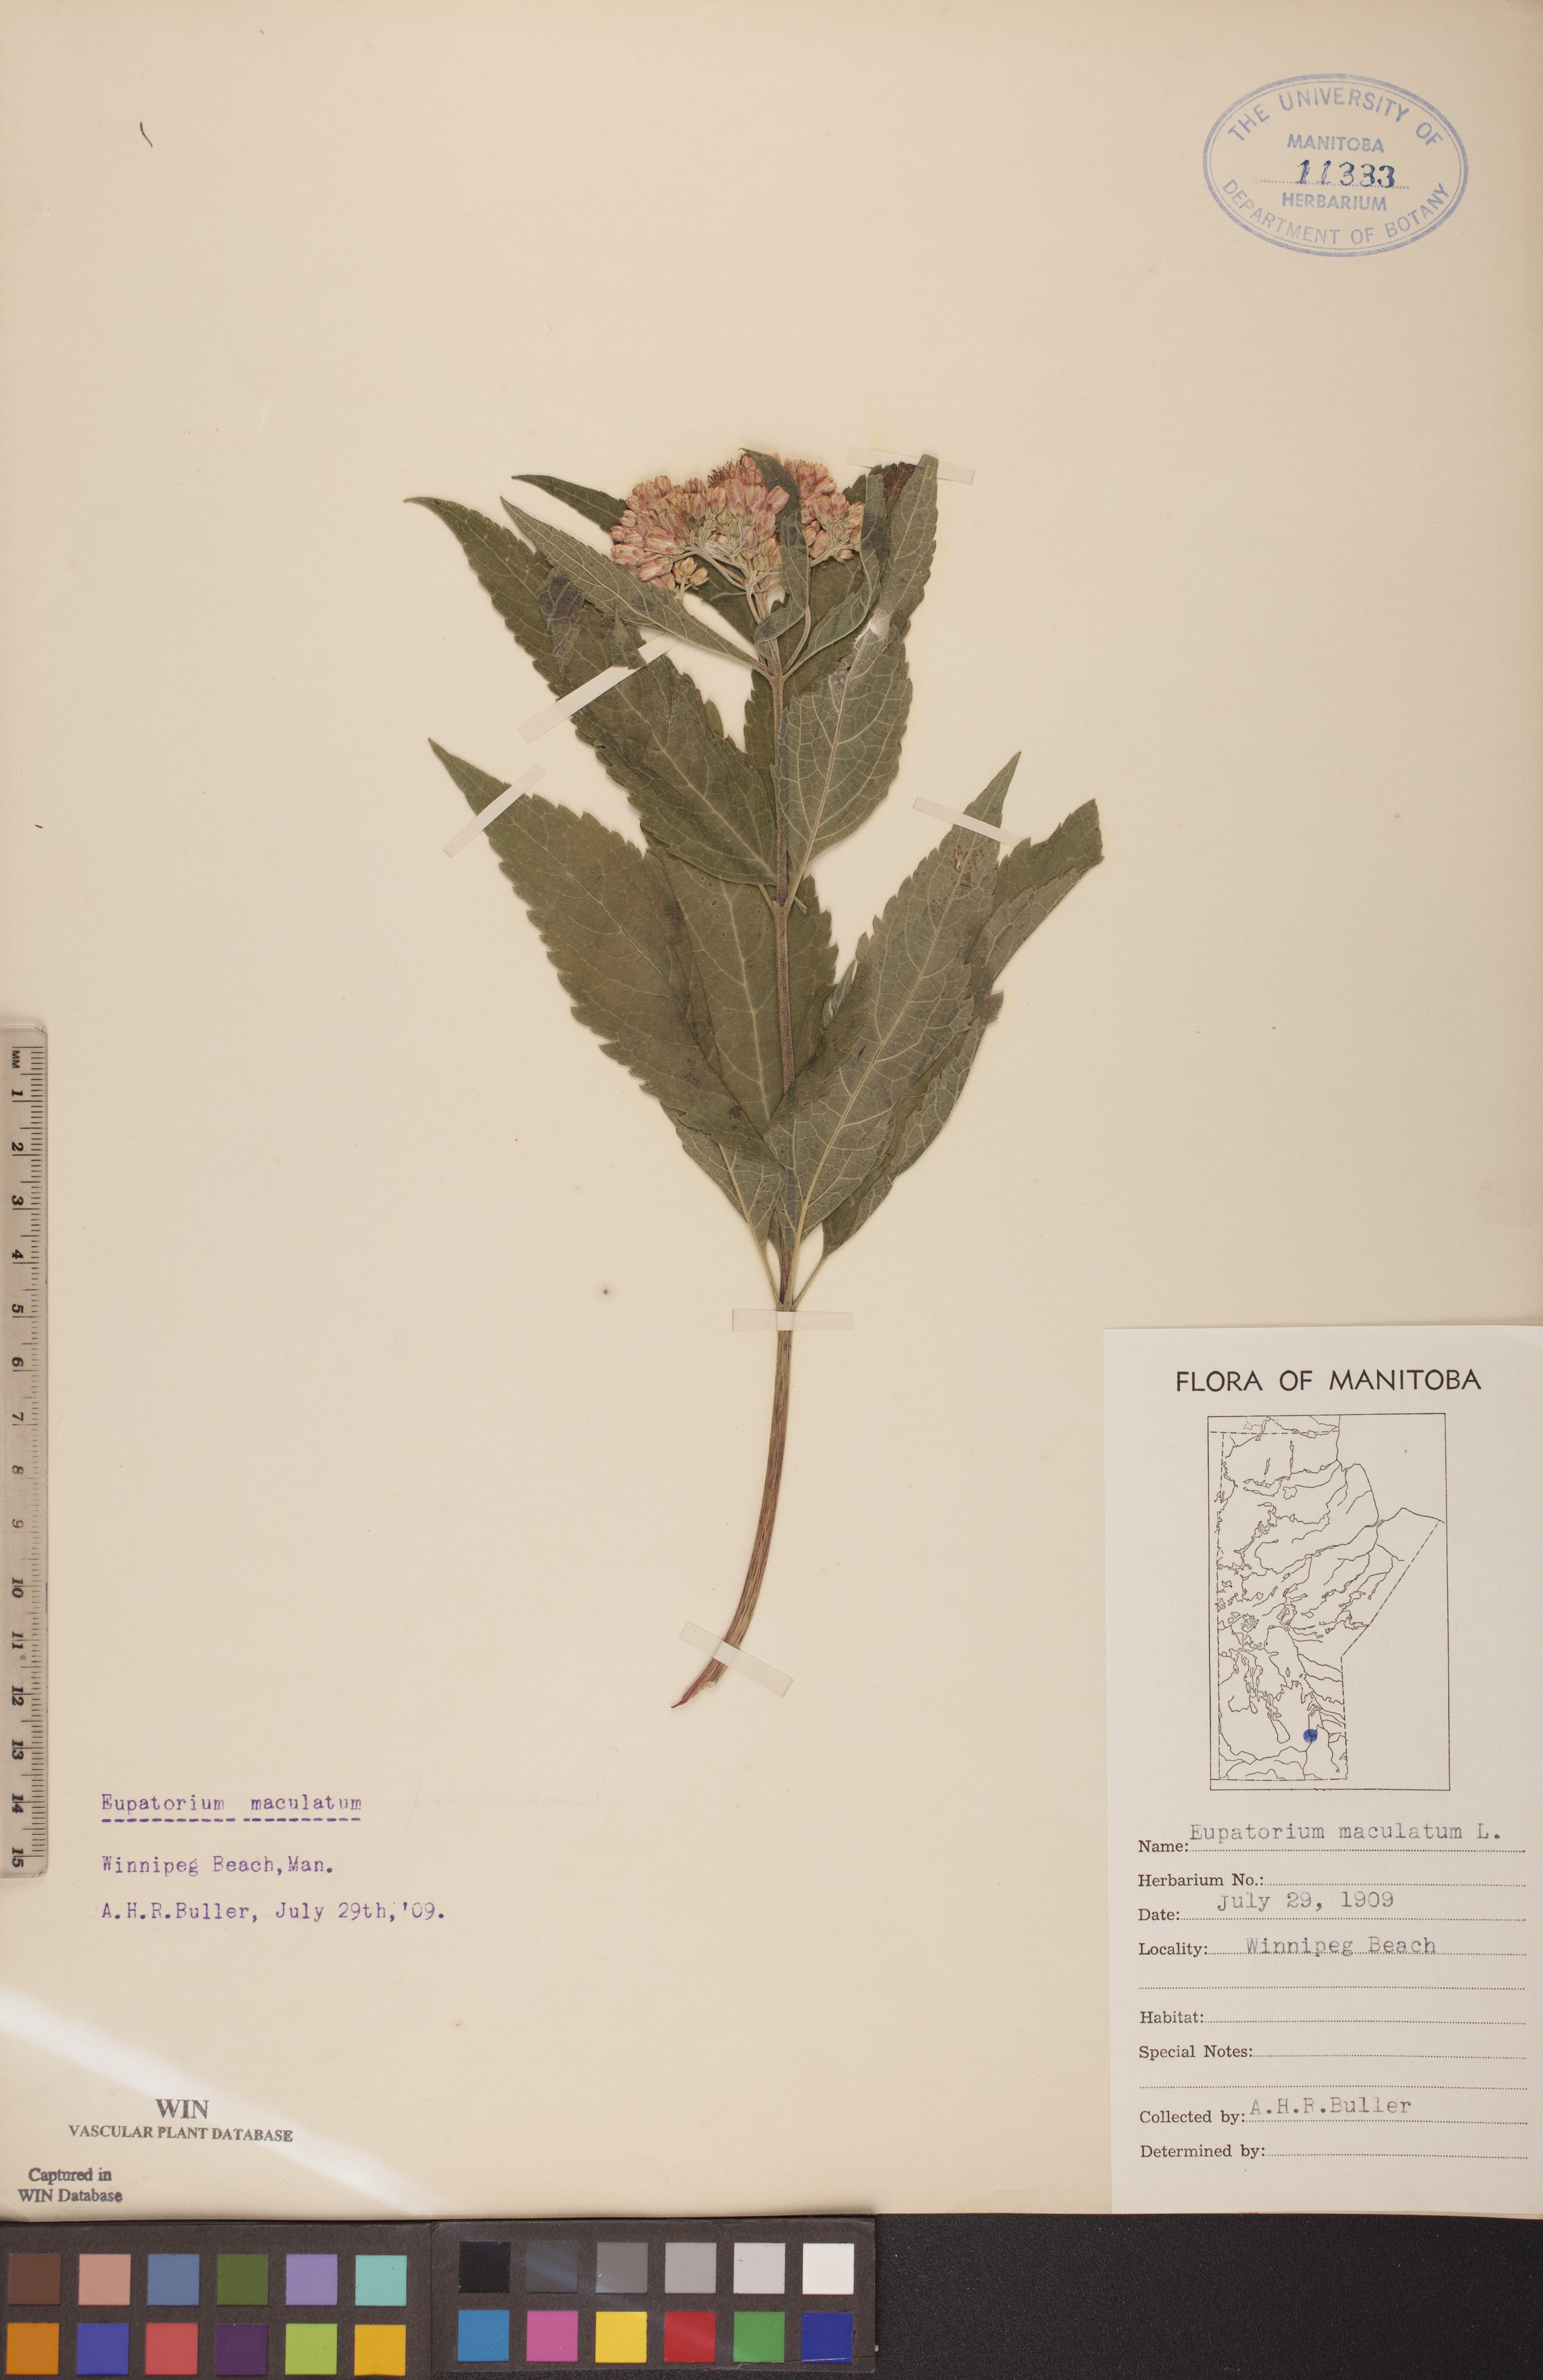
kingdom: Plantae
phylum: Tracheophyta
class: Magnoliopsida
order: Asterales
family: Asteraceae
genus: Eutrochium
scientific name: Eutrochium maculatum
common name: Spotted joe pye weed
